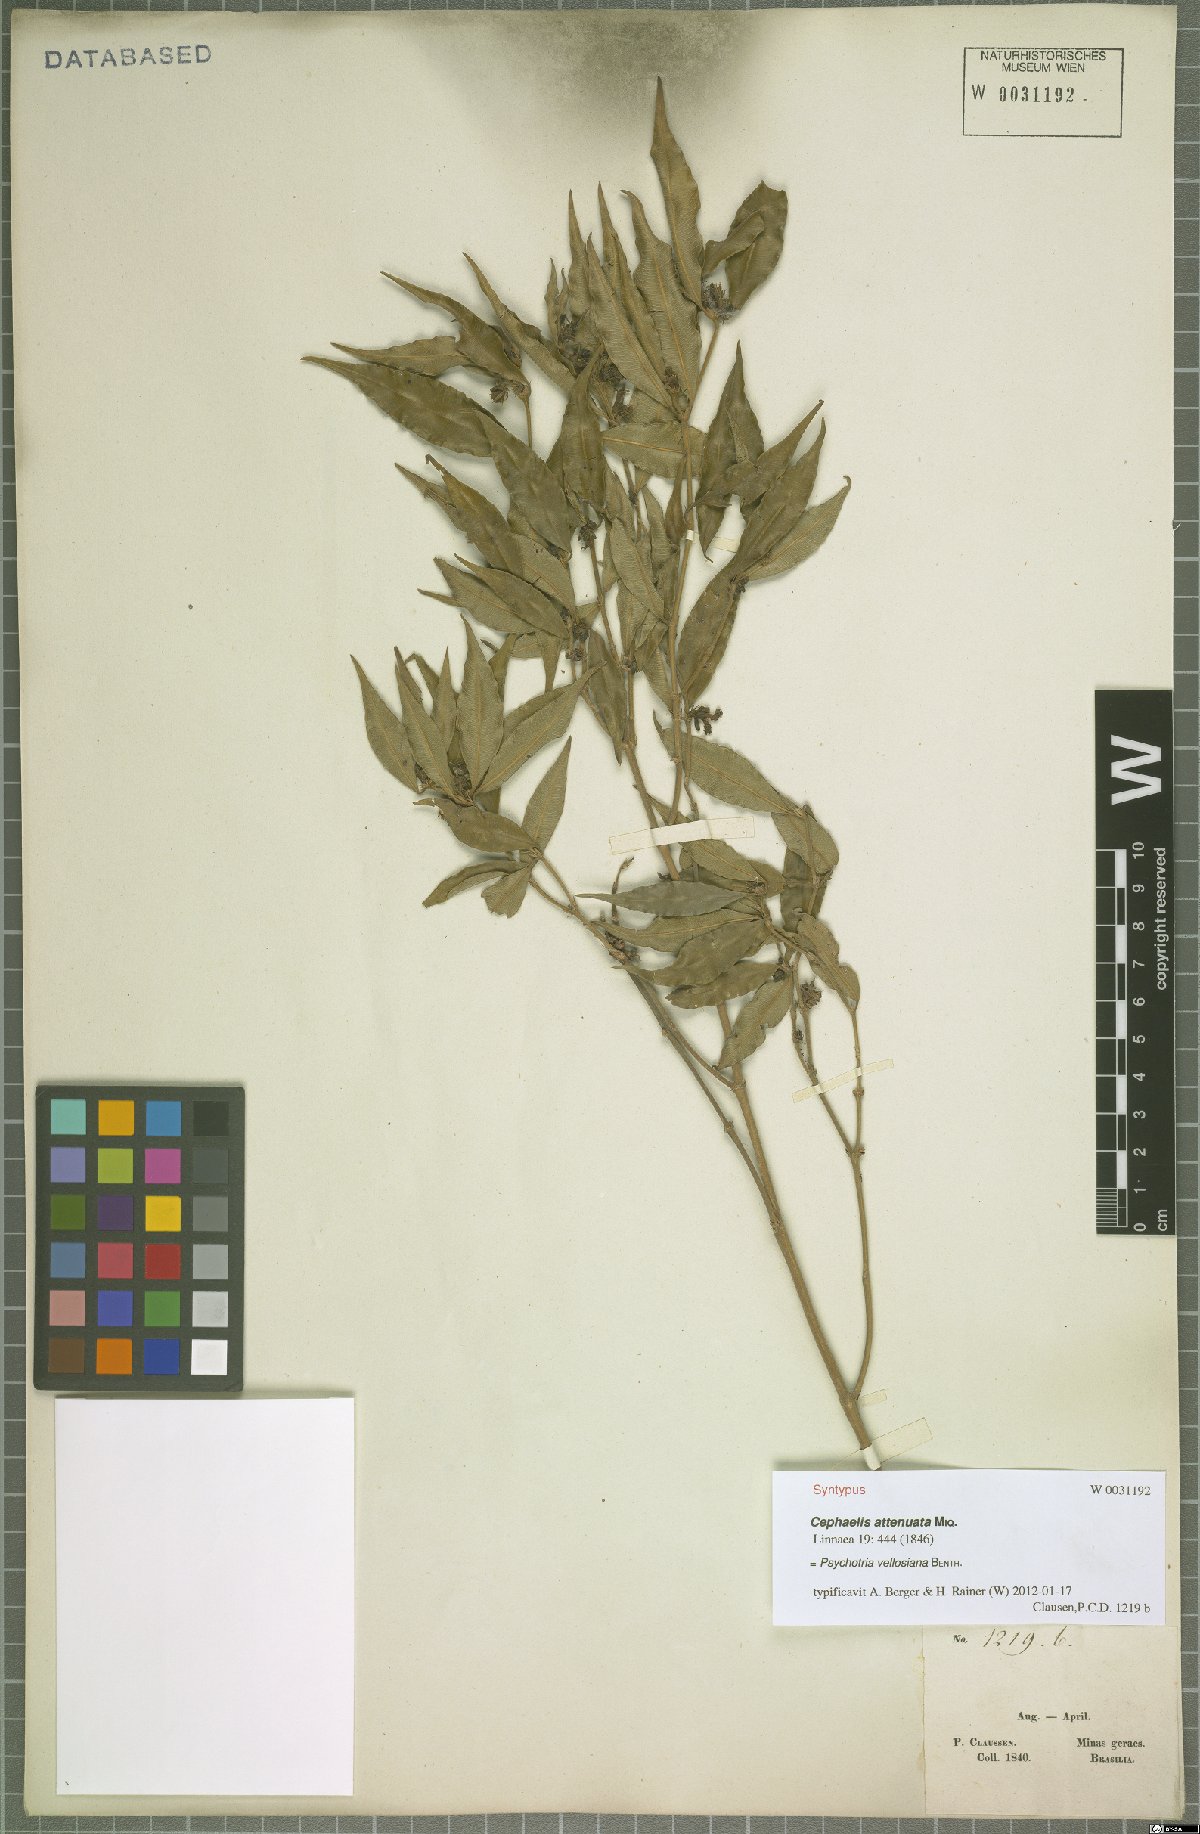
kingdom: Plantae
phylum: Tracheophyta
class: Magnoliopsida
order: Gentianales
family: Rubiaceae
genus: Palicourea
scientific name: Palicourea sessilis
